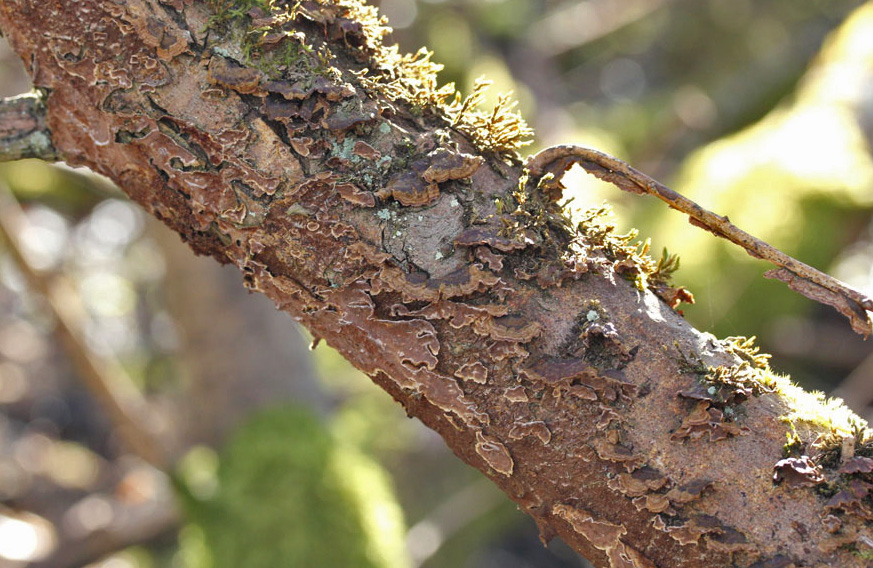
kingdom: Fungi
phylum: Basidiomycota
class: Agaricomycetes
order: Hymenochaetales
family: Hymenochaetaceae
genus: Hydnoporia
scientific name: Hydnoporia tabacina
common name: tobaksbrun ruslædersvamp
